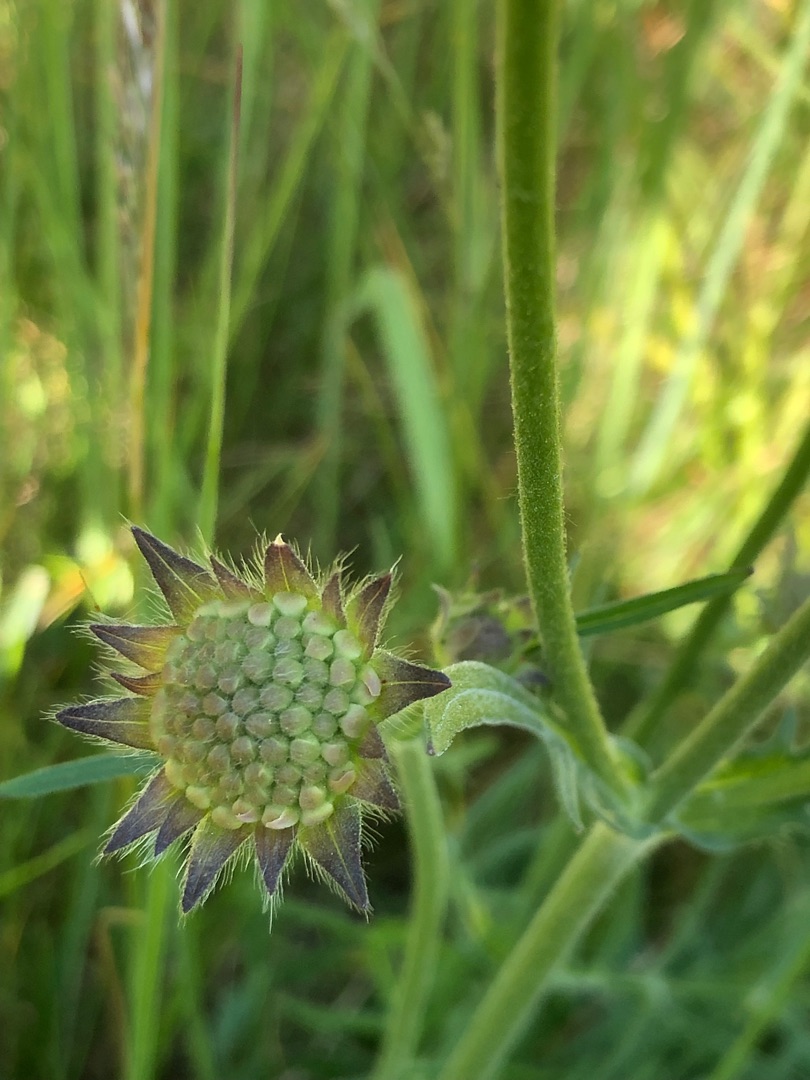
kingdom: Plantae
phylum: Tracheophyta
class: Magnoliopsida
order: Dipsacales
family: Caprifoliaceae
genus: Knautia
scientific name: Knautia arvensis
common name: Blåhat
